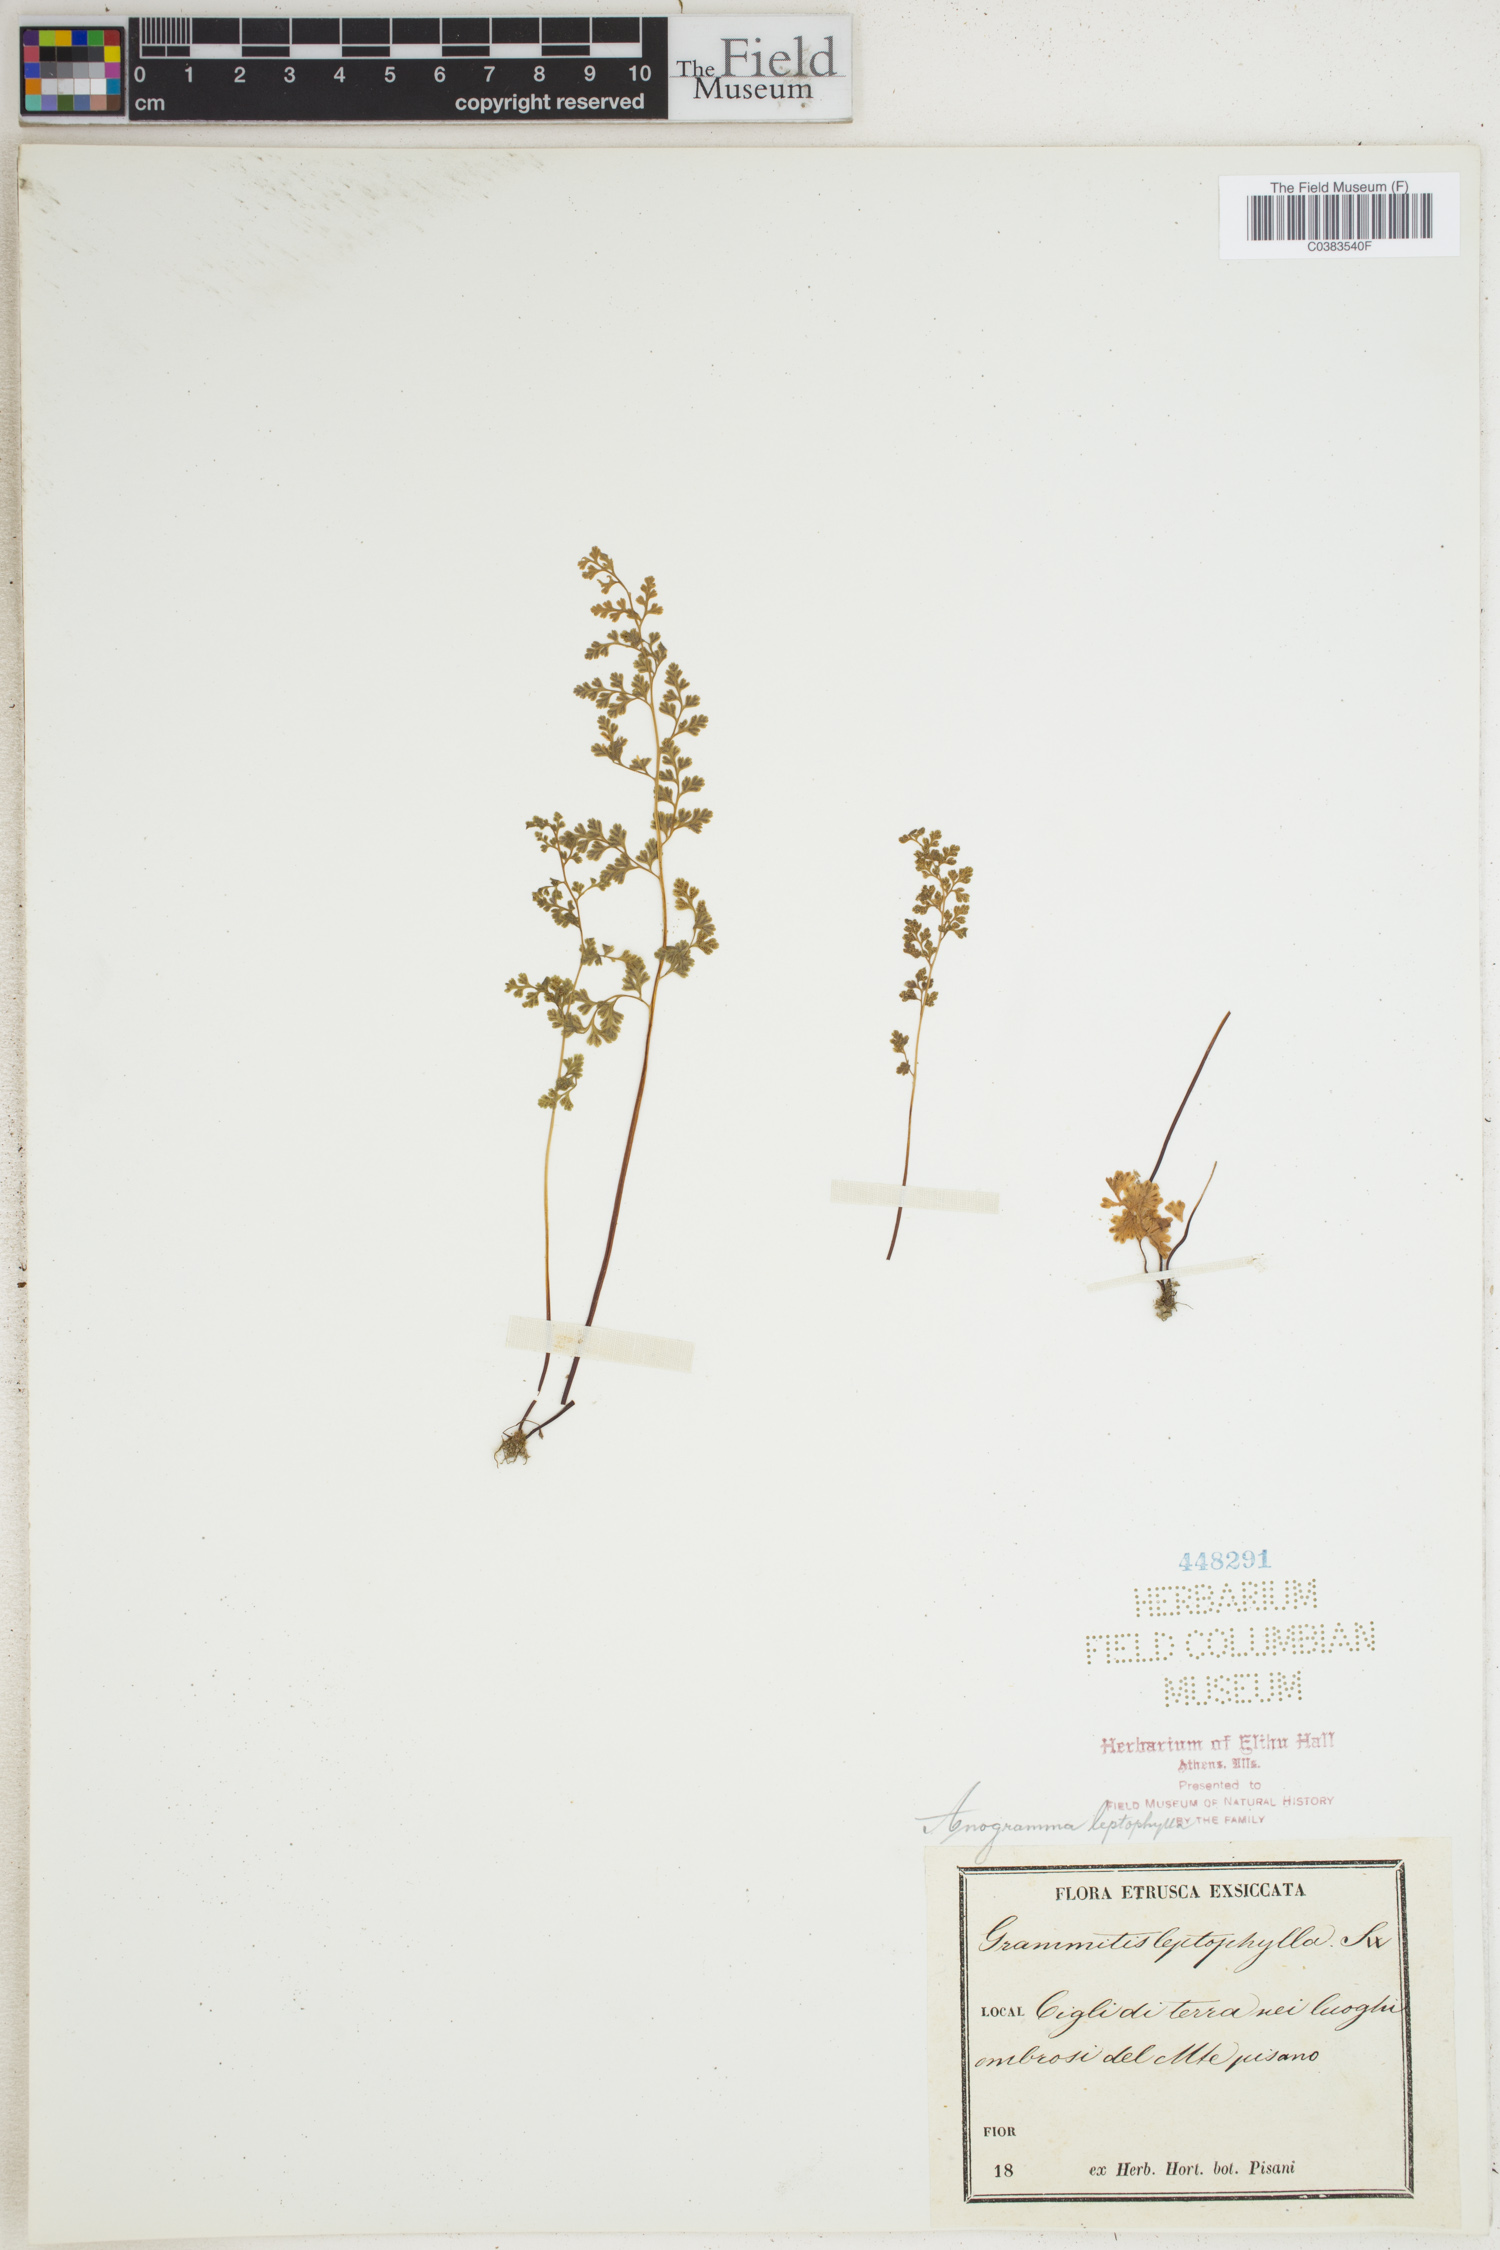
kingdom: Plantae
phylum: Tracheophyta
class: Polypodiopsida
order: Polypodiales
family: Pteridaceae
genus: Anogramma
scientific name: Anogramma leptophylla
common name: Jersey fern
